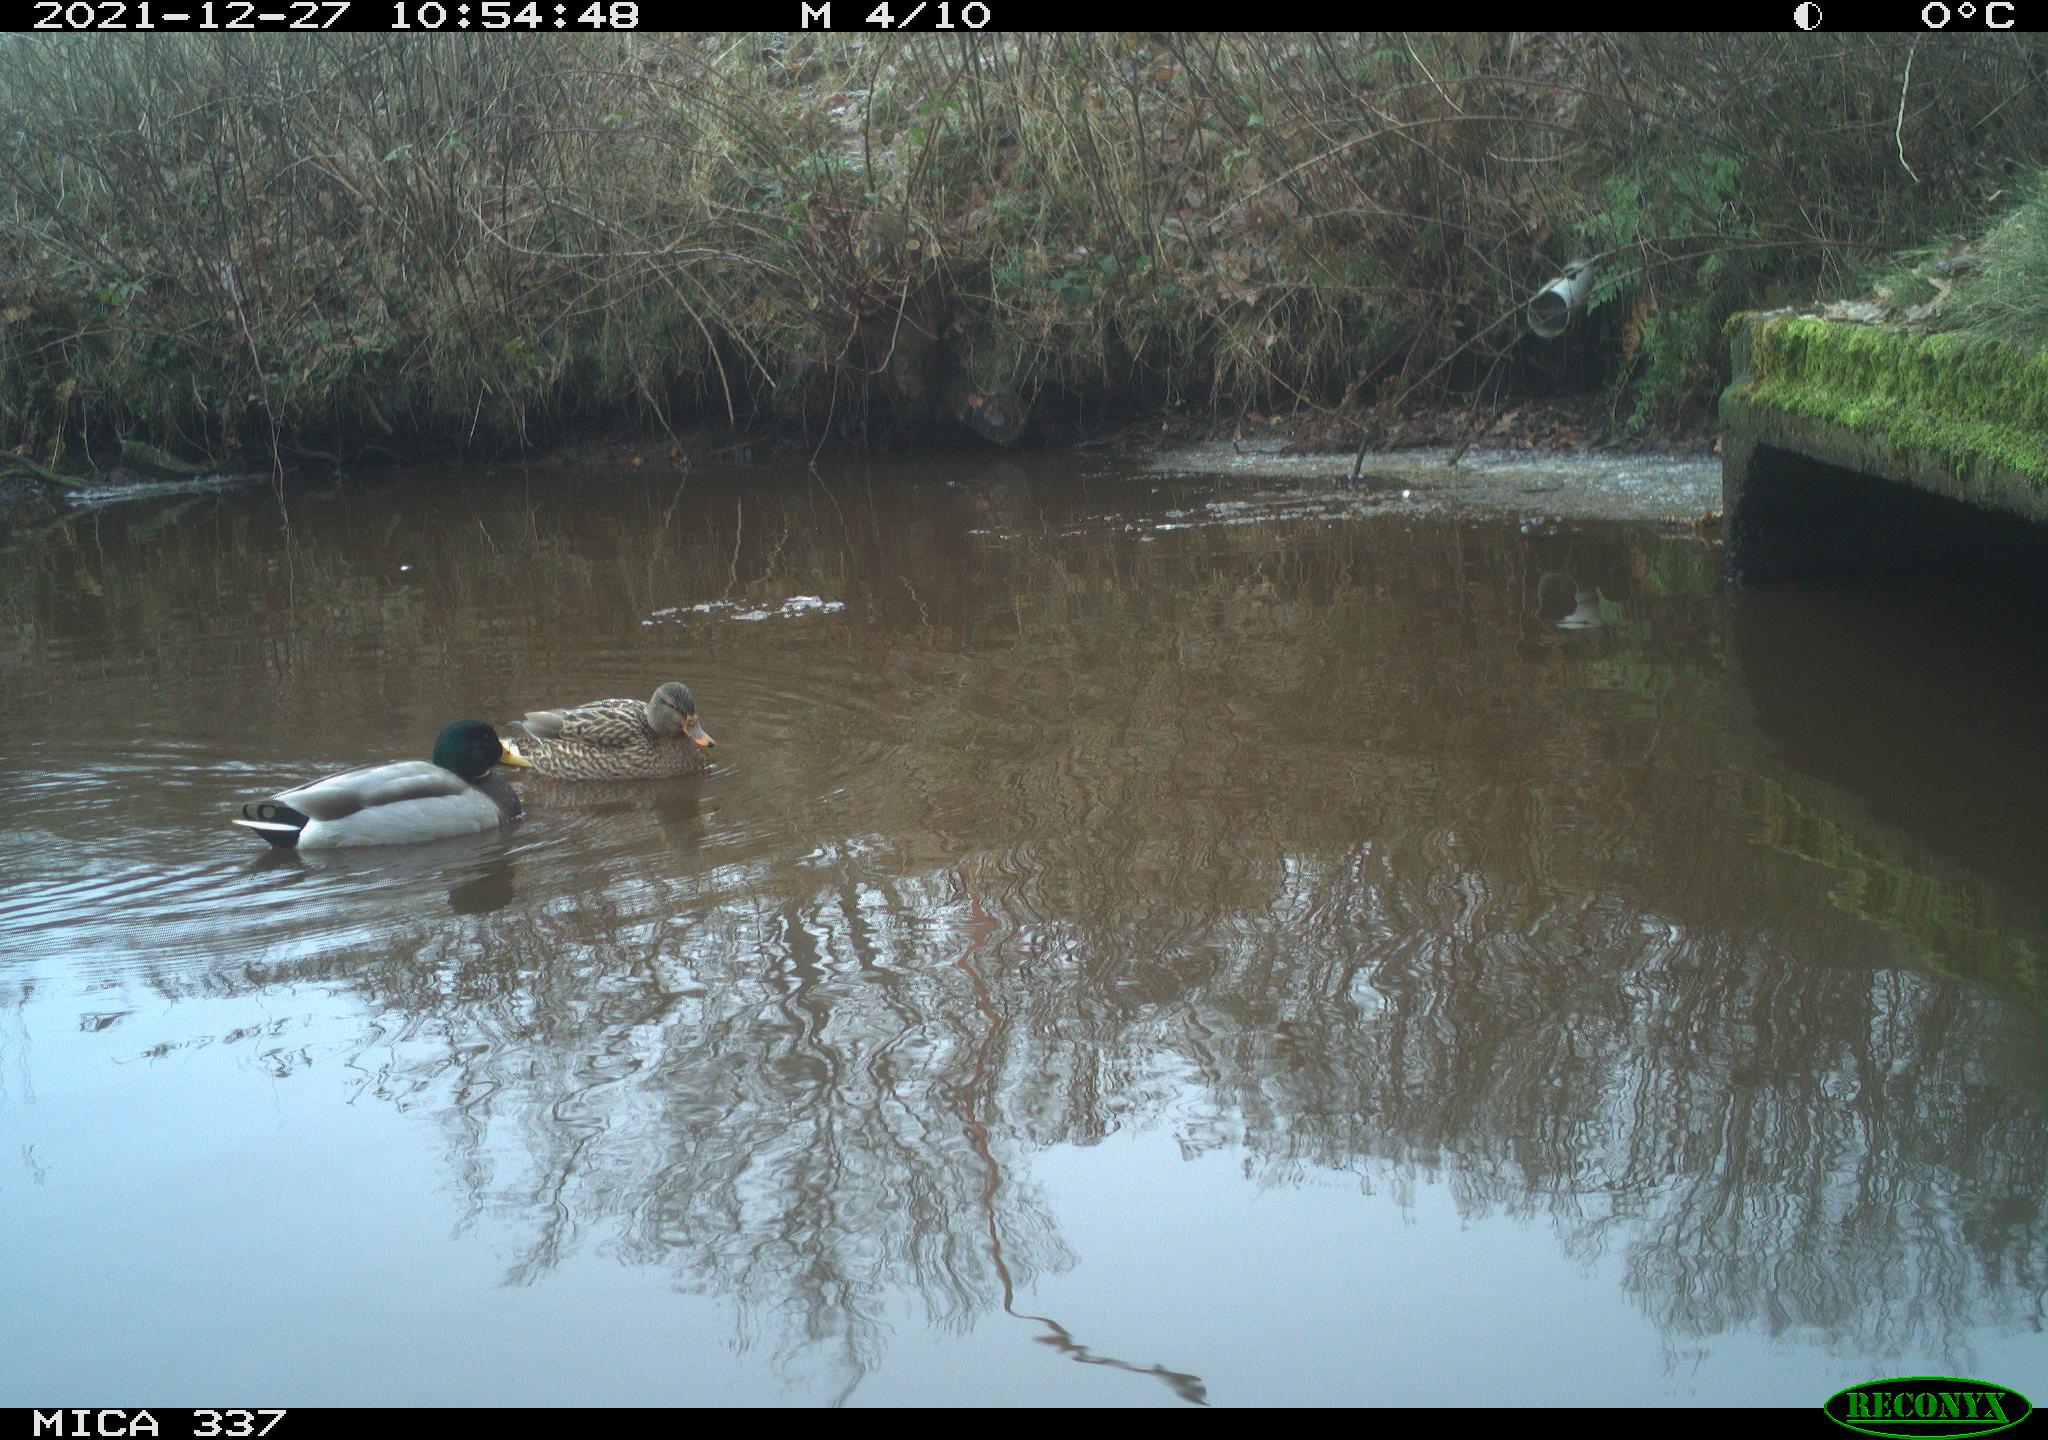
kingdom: Animalia
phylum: Chordata
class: Aves
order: Anseriformes
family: Anatidae
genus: Anas
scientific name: Anas platyrhynchos
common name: Mallard
